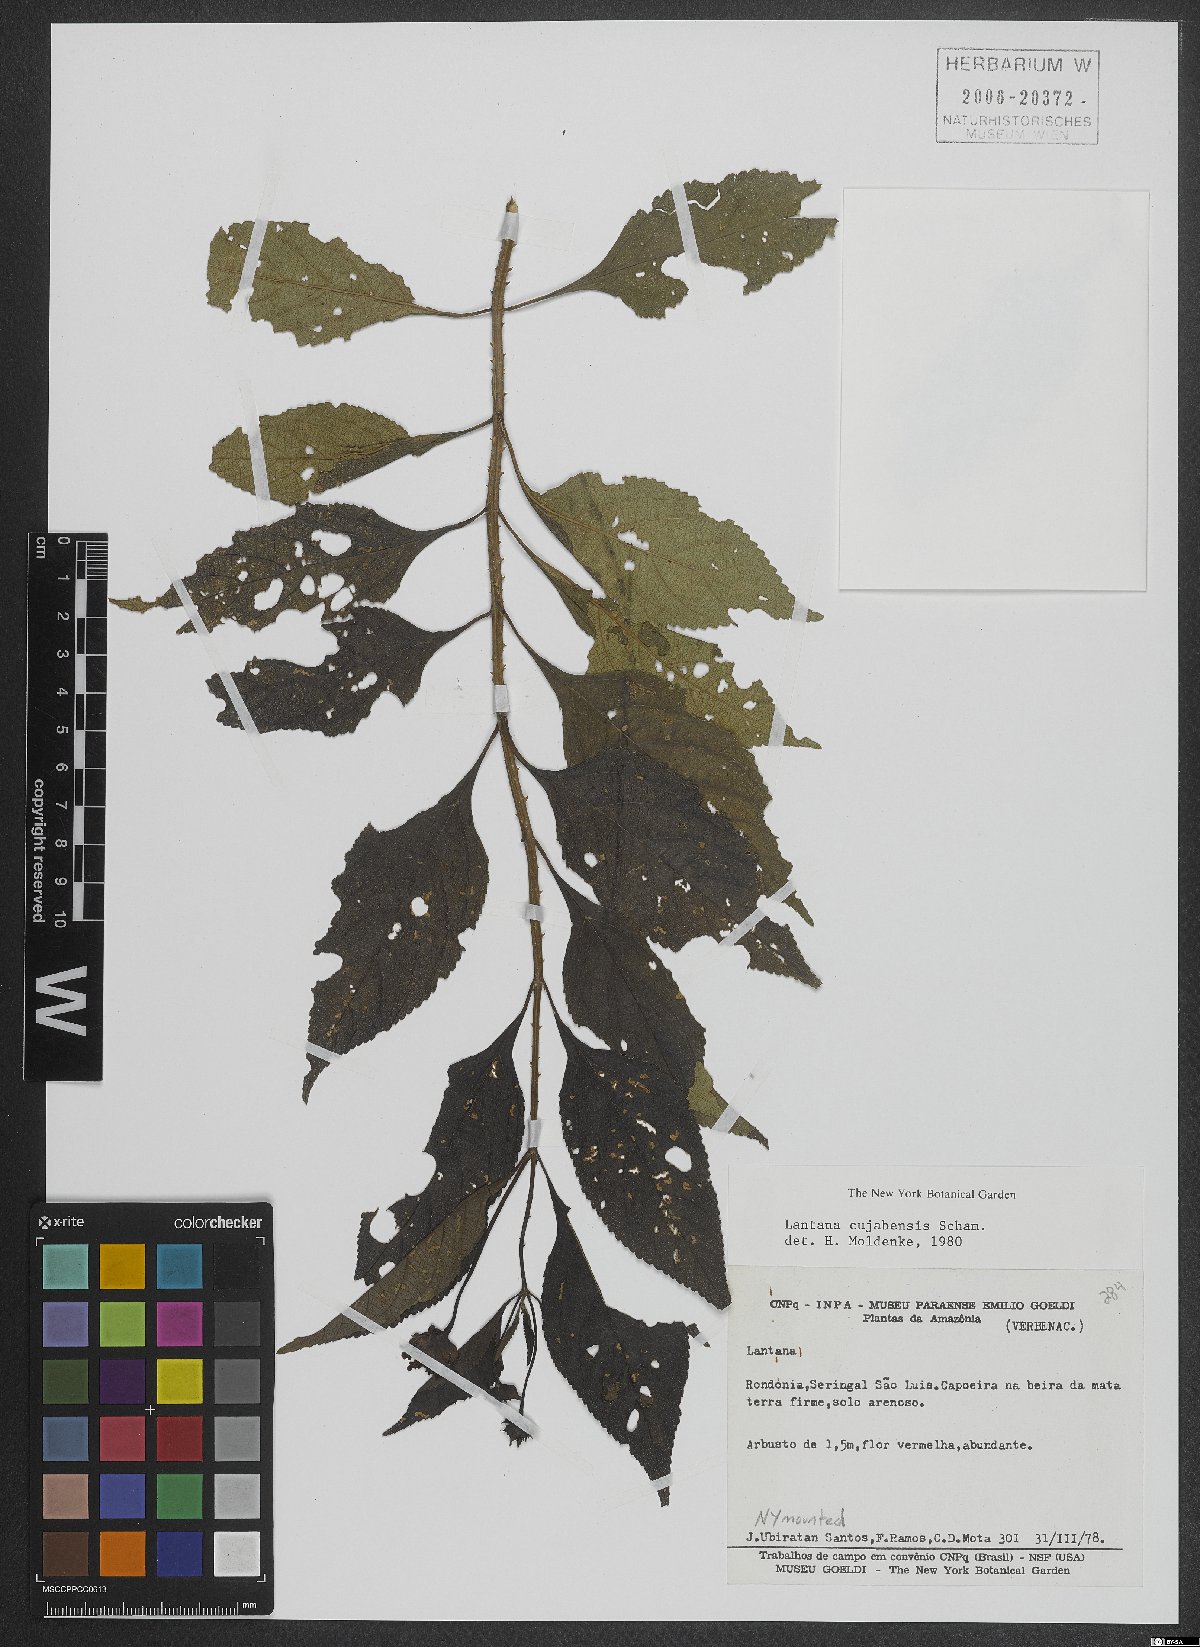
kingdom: Plantae
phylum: Tracheophyta
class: Magnoliopsida
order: Lamiales
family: Verbenaceae
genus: Lantana
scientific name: Lantana cujabensis
